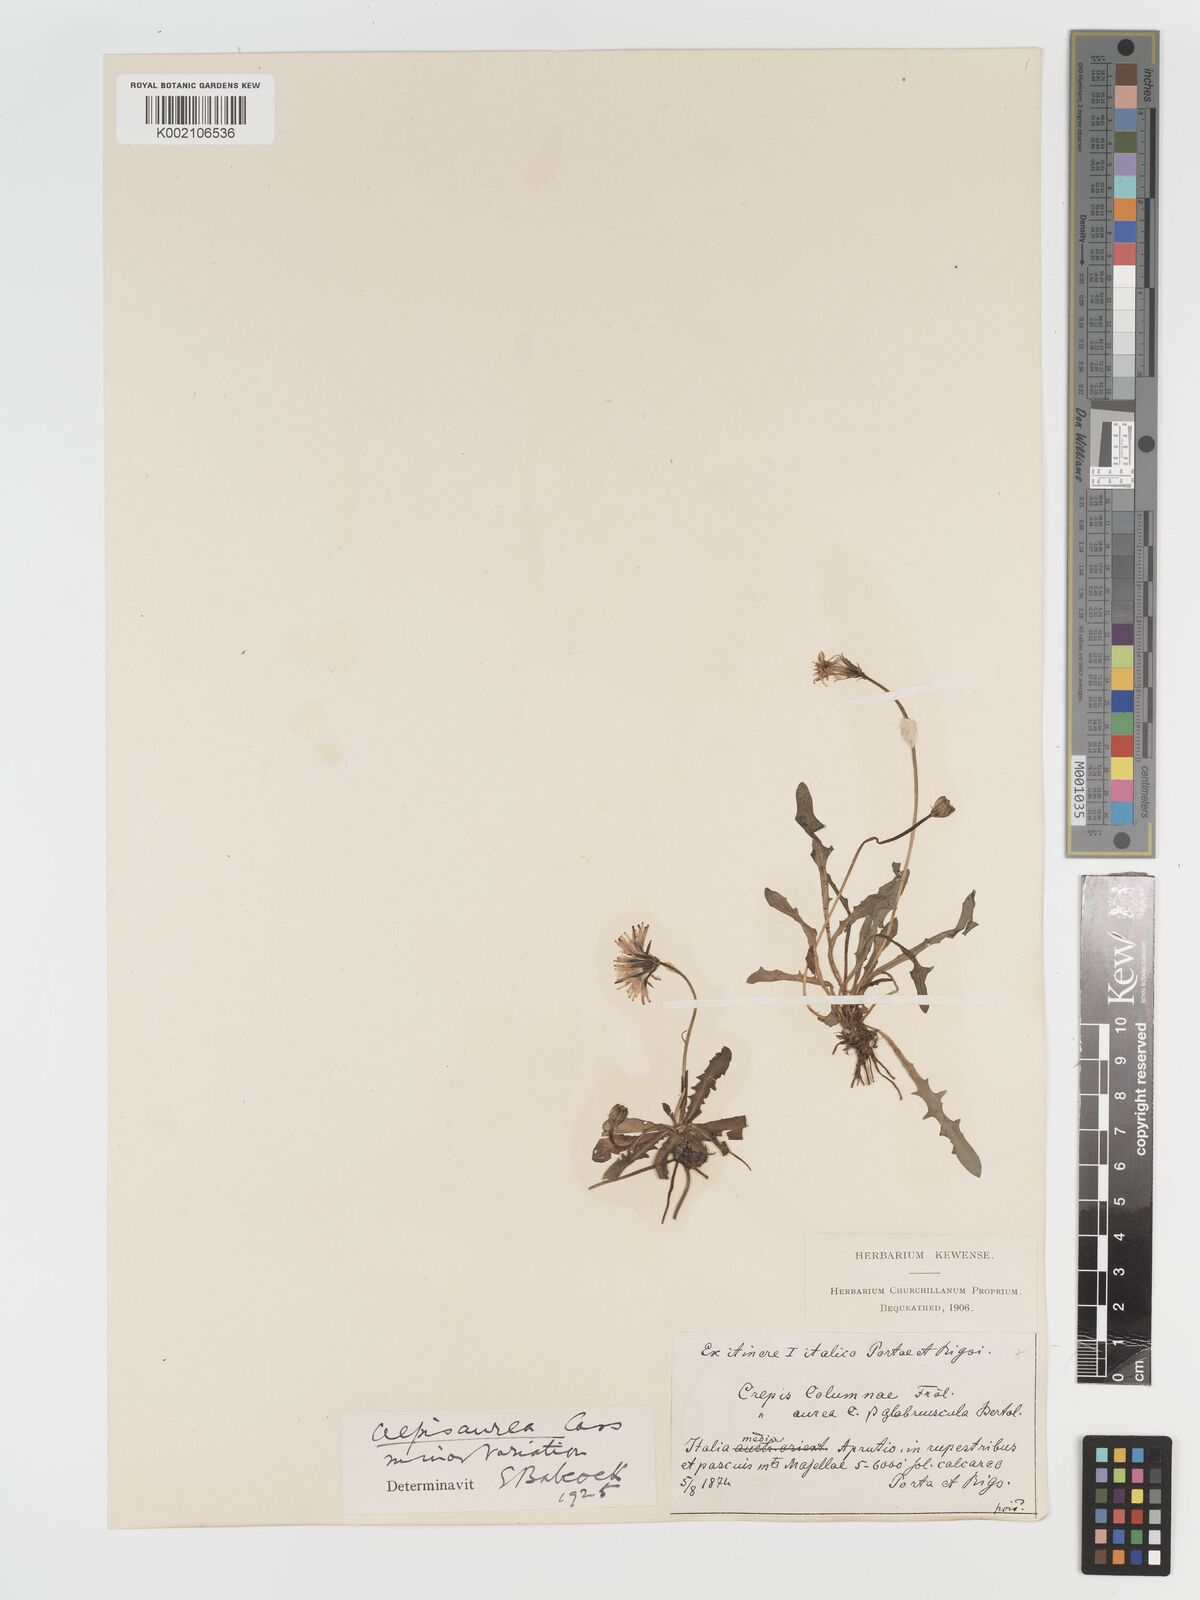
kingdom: Plantae
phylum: Tracheophyta
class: Magnoliopsida
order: Asterales
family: Asteraceae
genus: Crepis
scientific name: Crepis aurea
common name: Golden hawk's-beard
